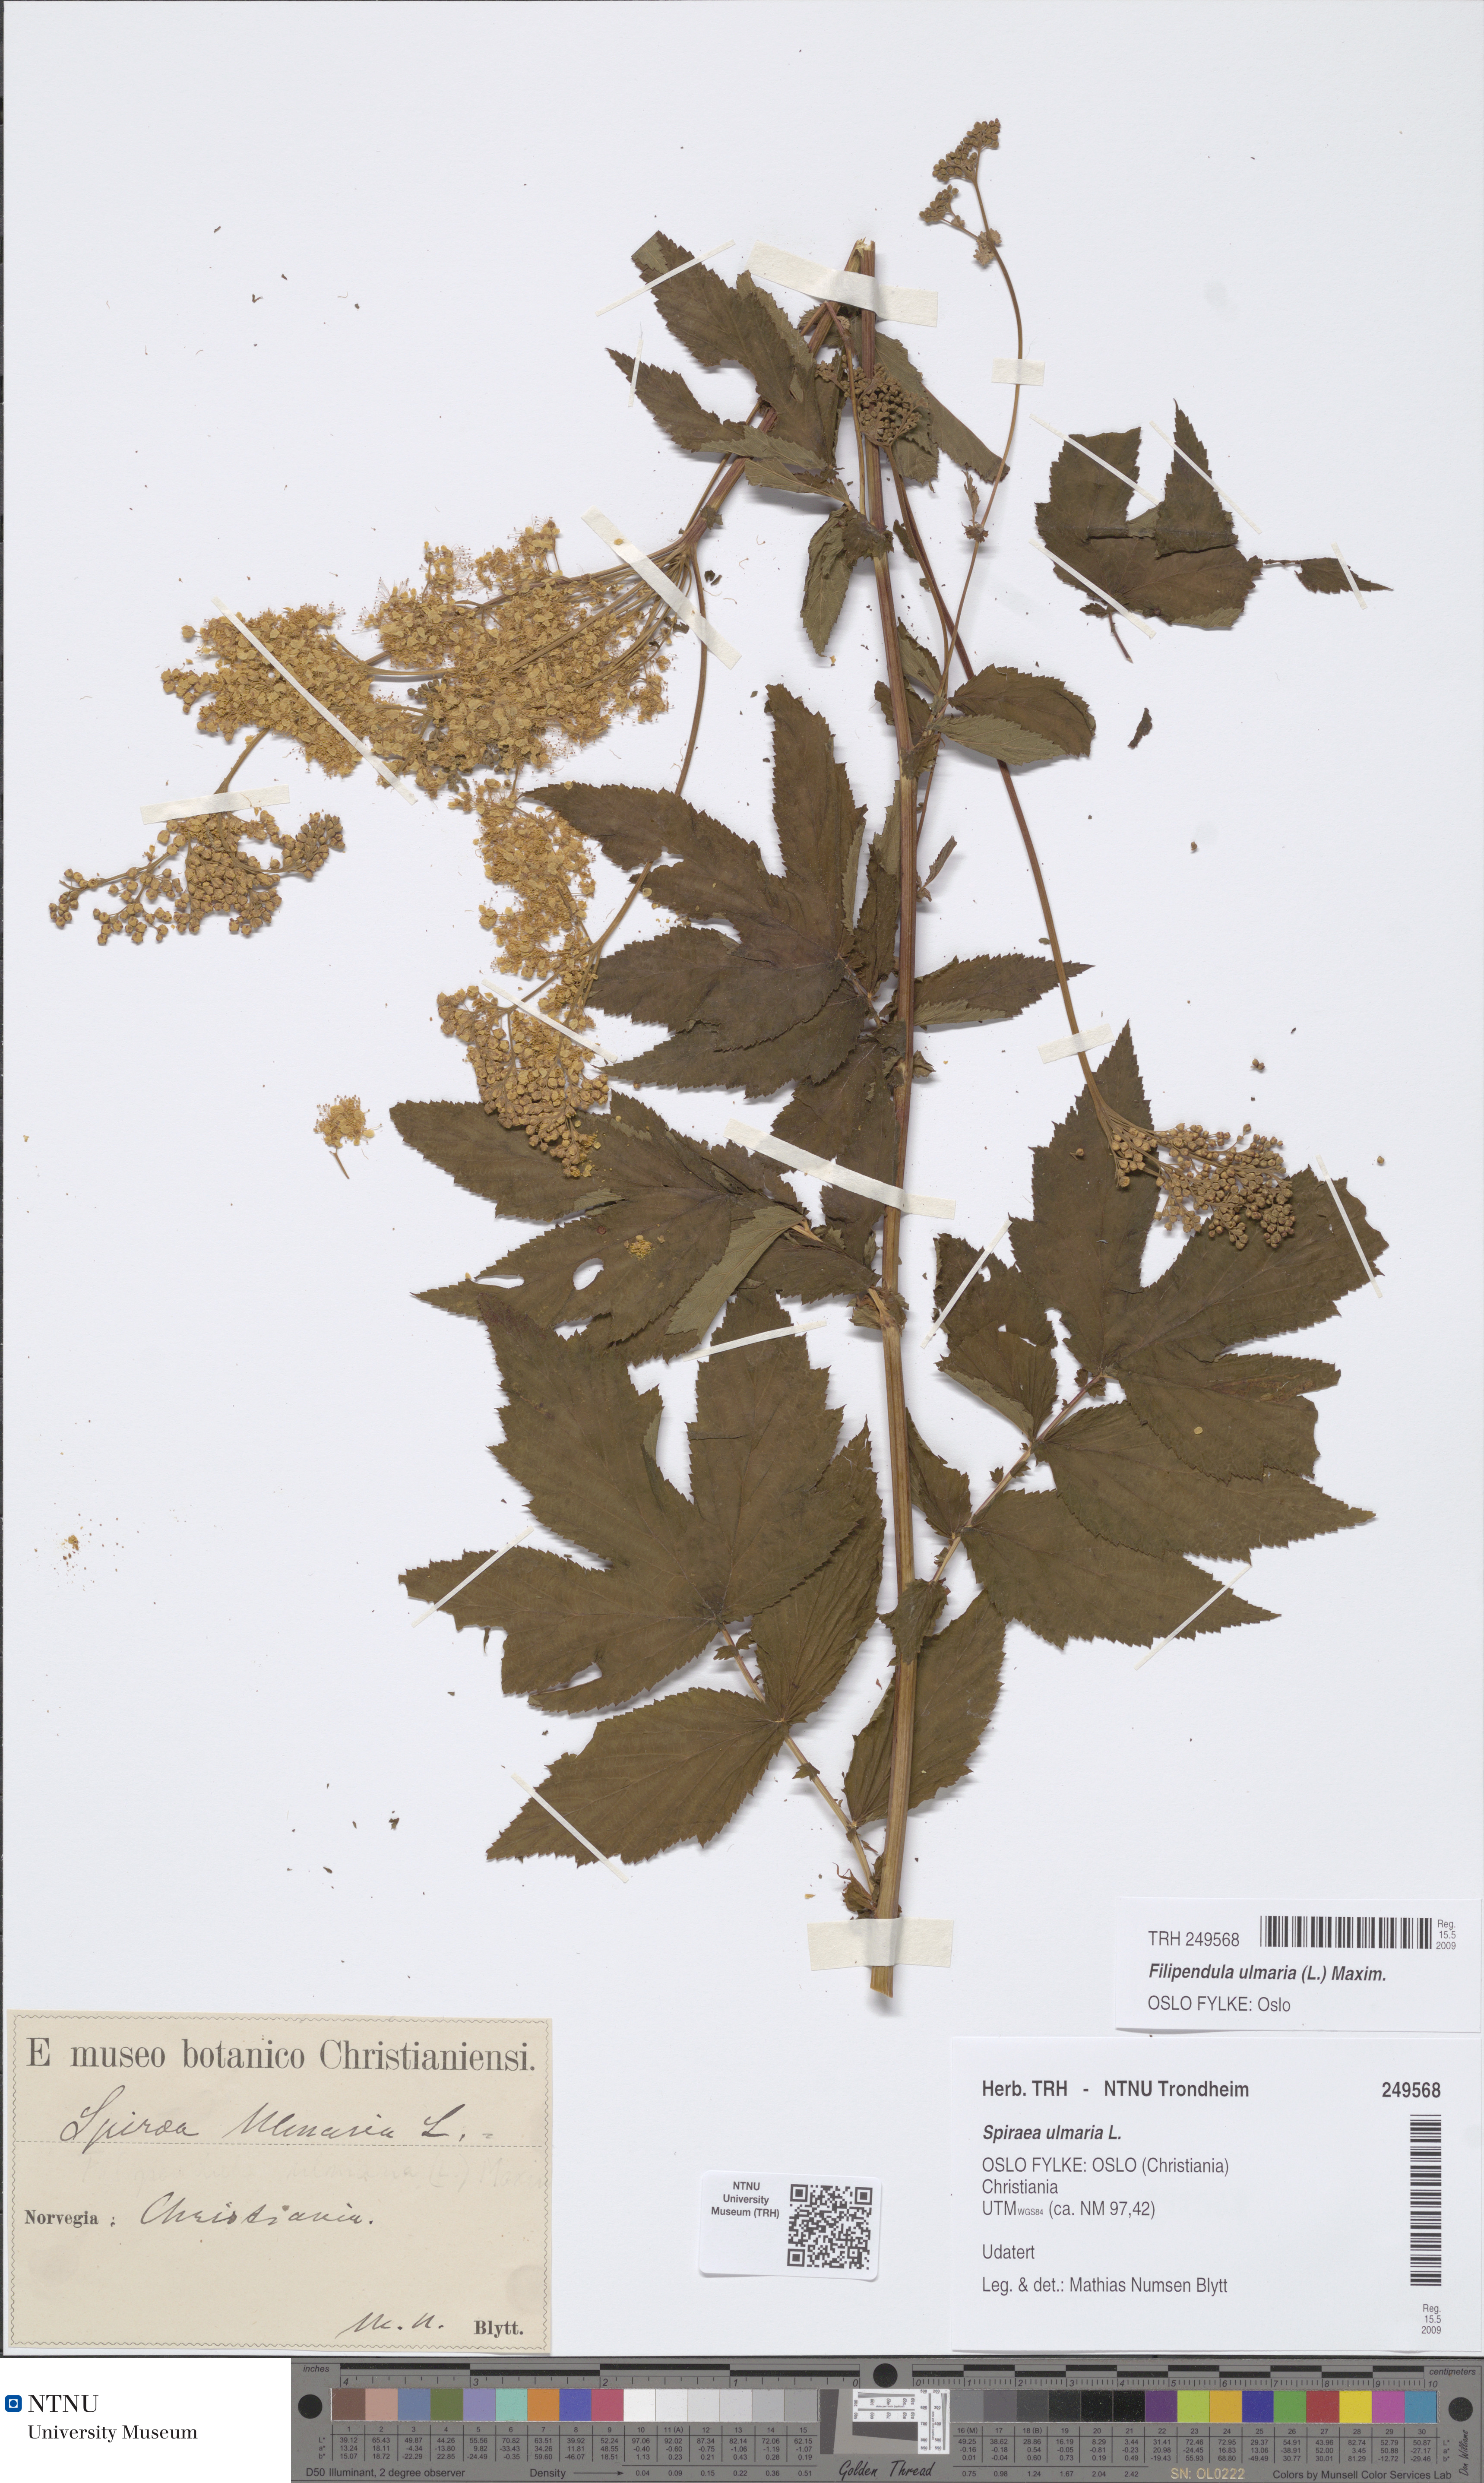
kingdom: Plantae
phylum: Tracheophyta
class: Magnoliopsida
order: Rosales
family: Rosaceae
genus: Filipendula
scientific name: Filipendula ulmaria
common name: Meadowsweet
